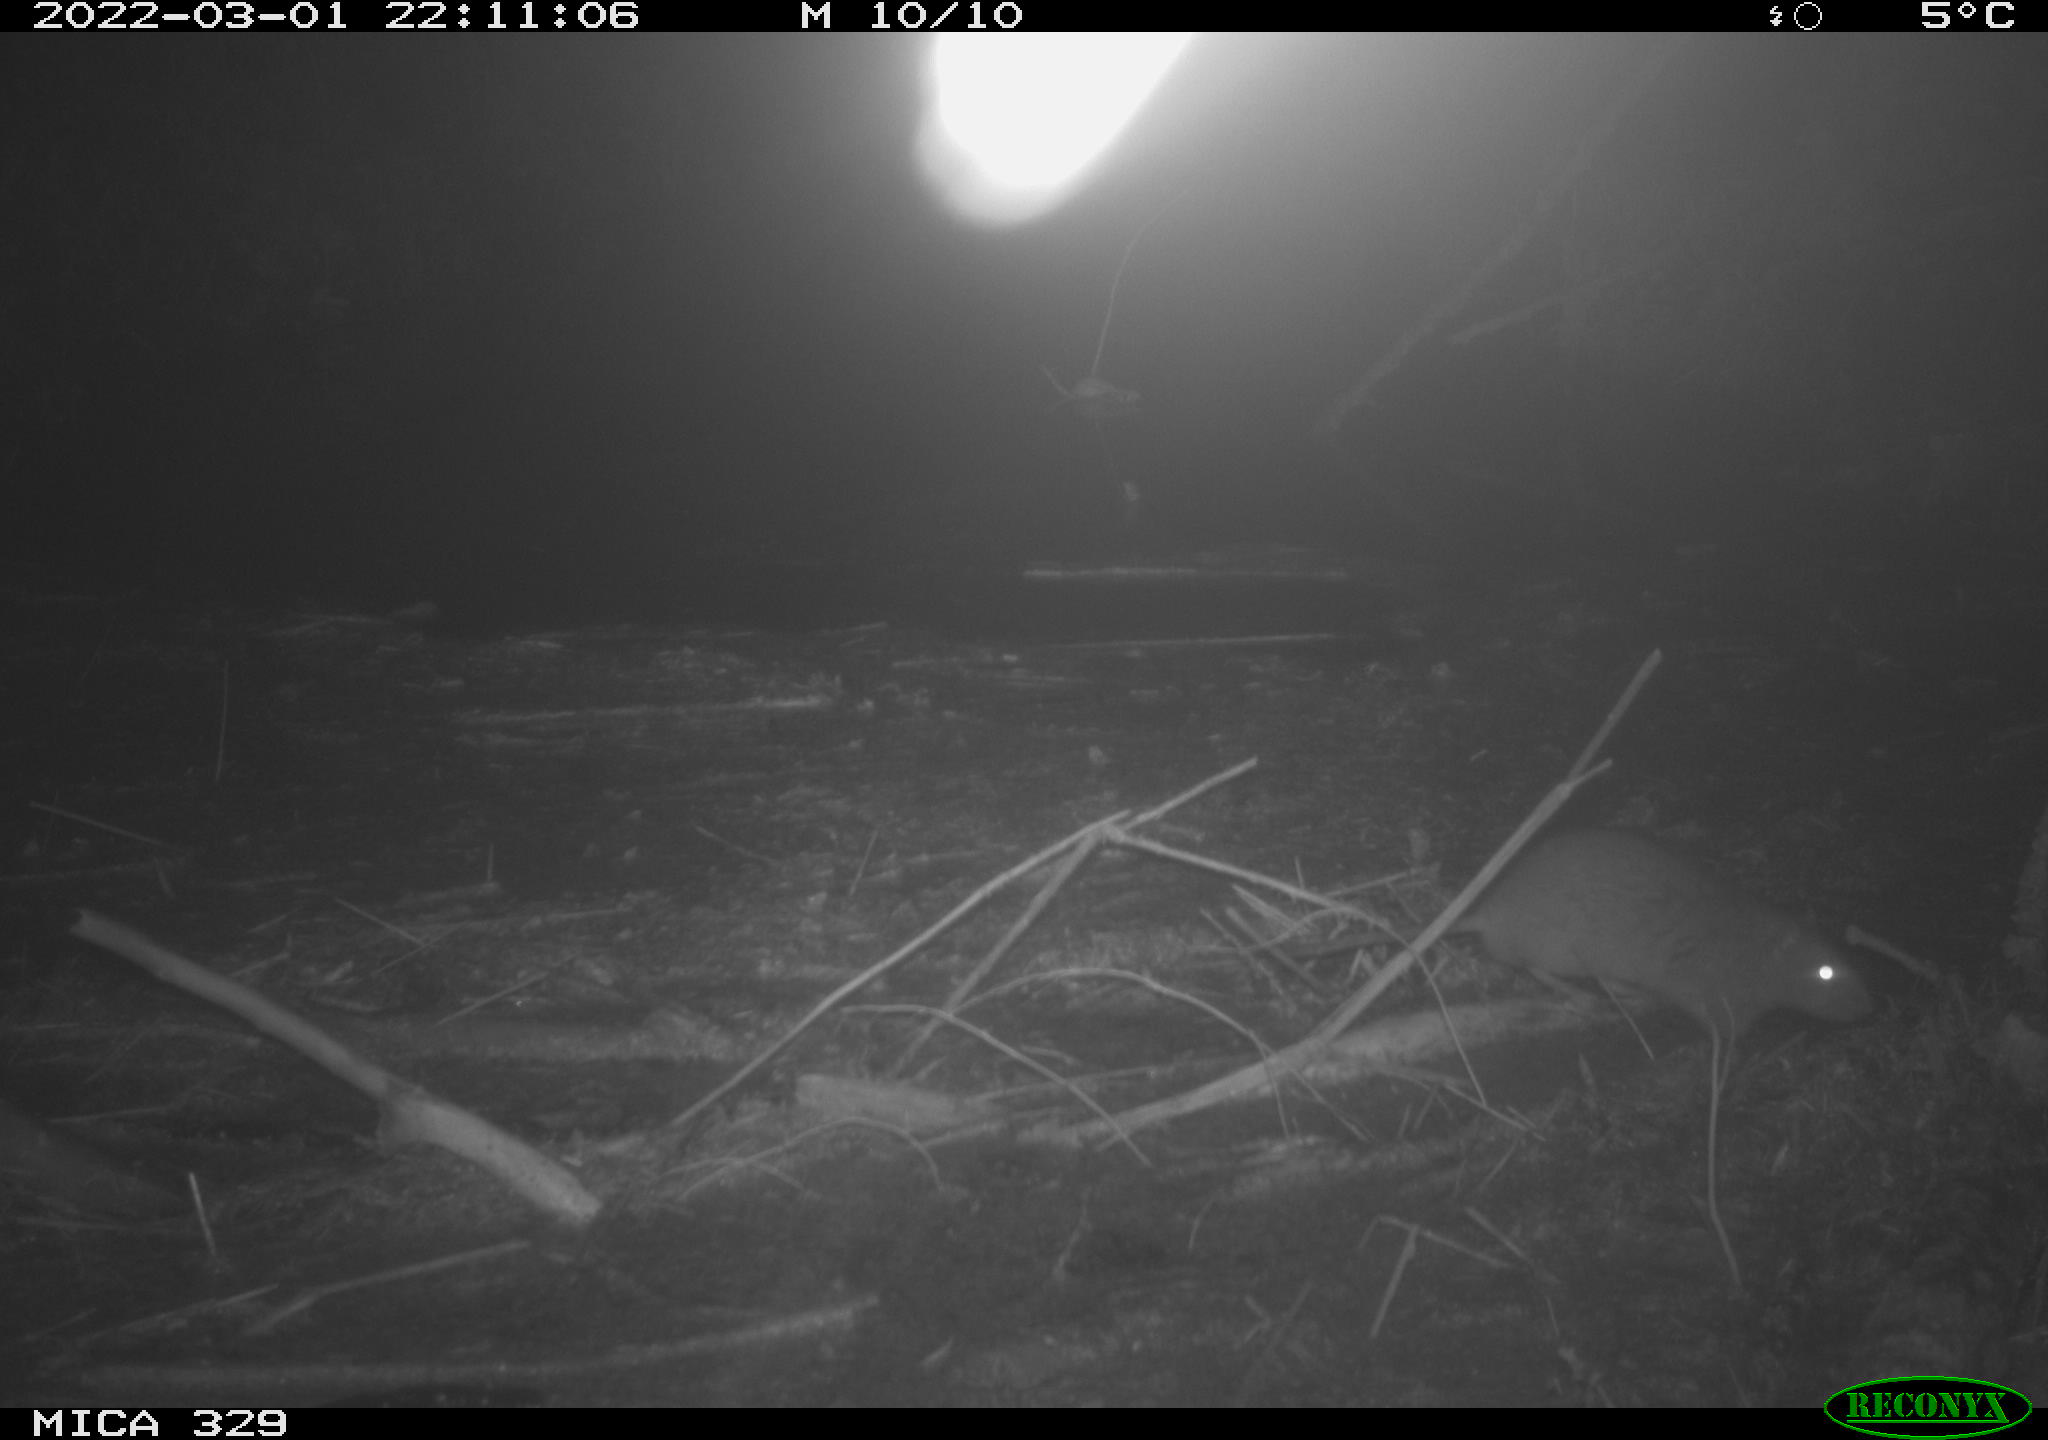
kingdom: Animalia
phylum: Chordata
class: Mammalia
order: Rodentia
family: Muridae
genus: Rattus
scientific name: Rattus norvegicus
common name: Brown rat
